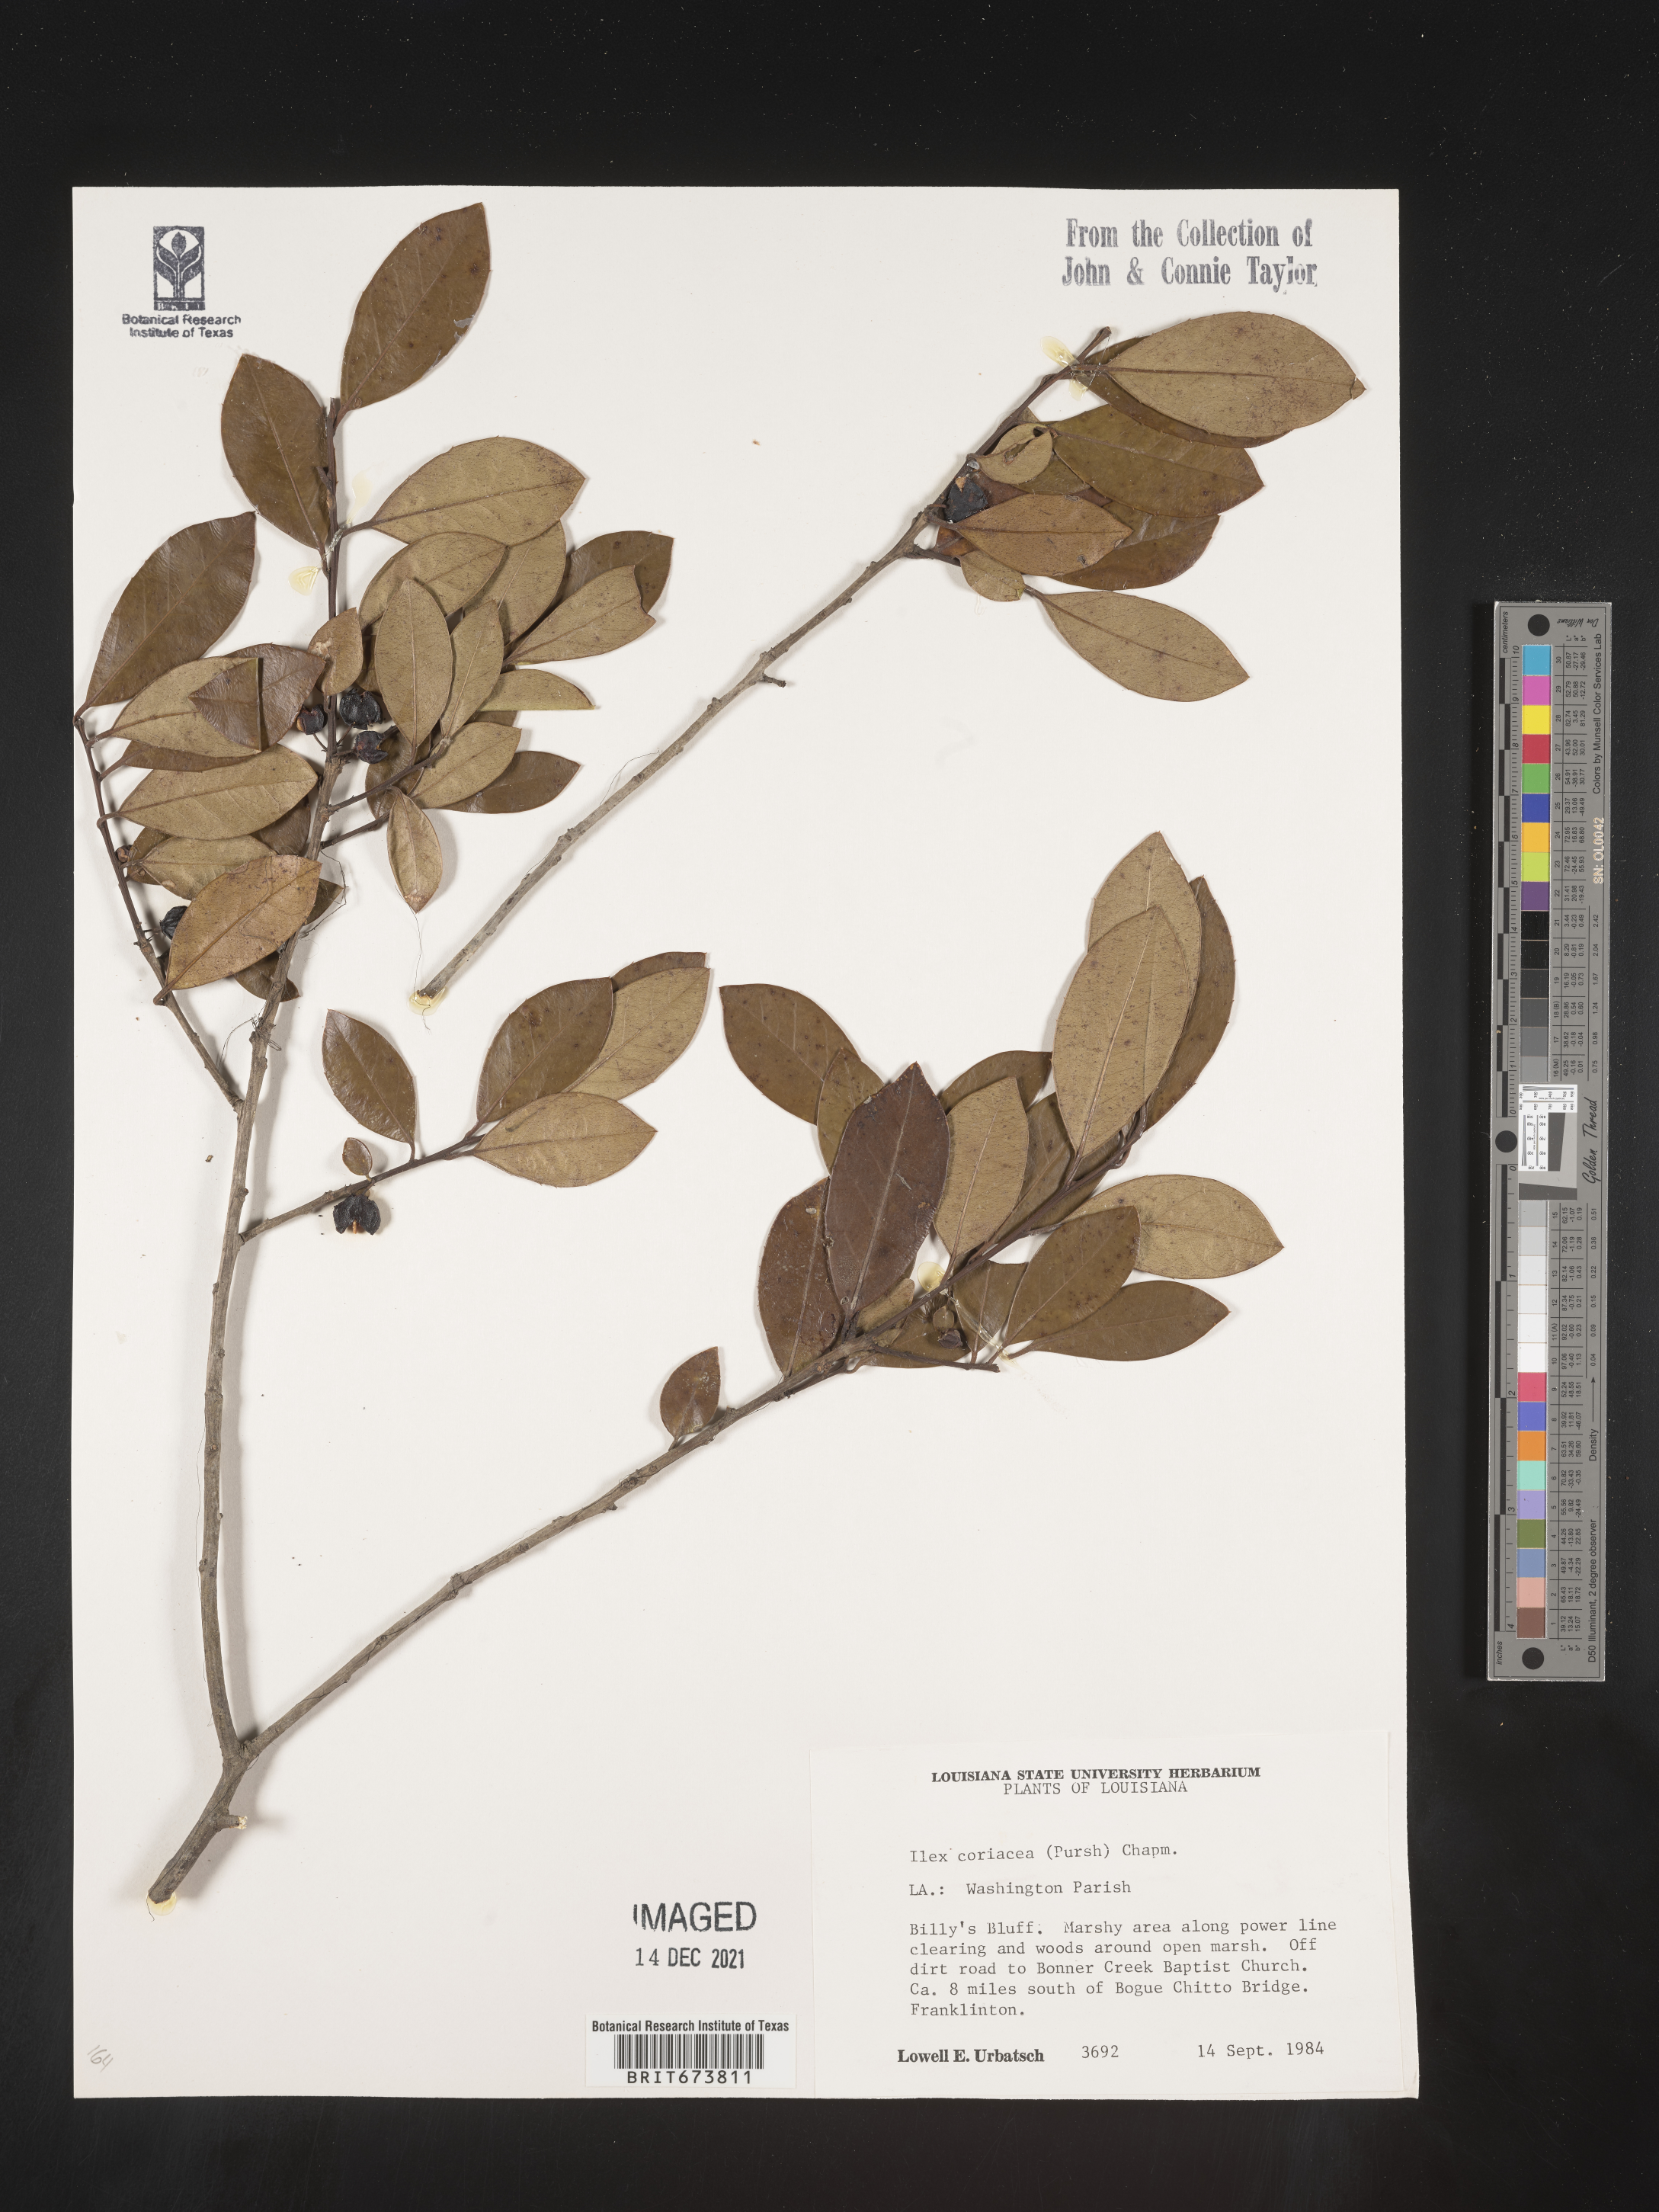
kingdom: Plantae
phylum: Tracheophyta
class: Magnoliopsida
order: Aquifoliales
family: Aquifoliaceae
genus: Ilex
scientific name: Ilex coriacea
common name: Sweet gallberry
